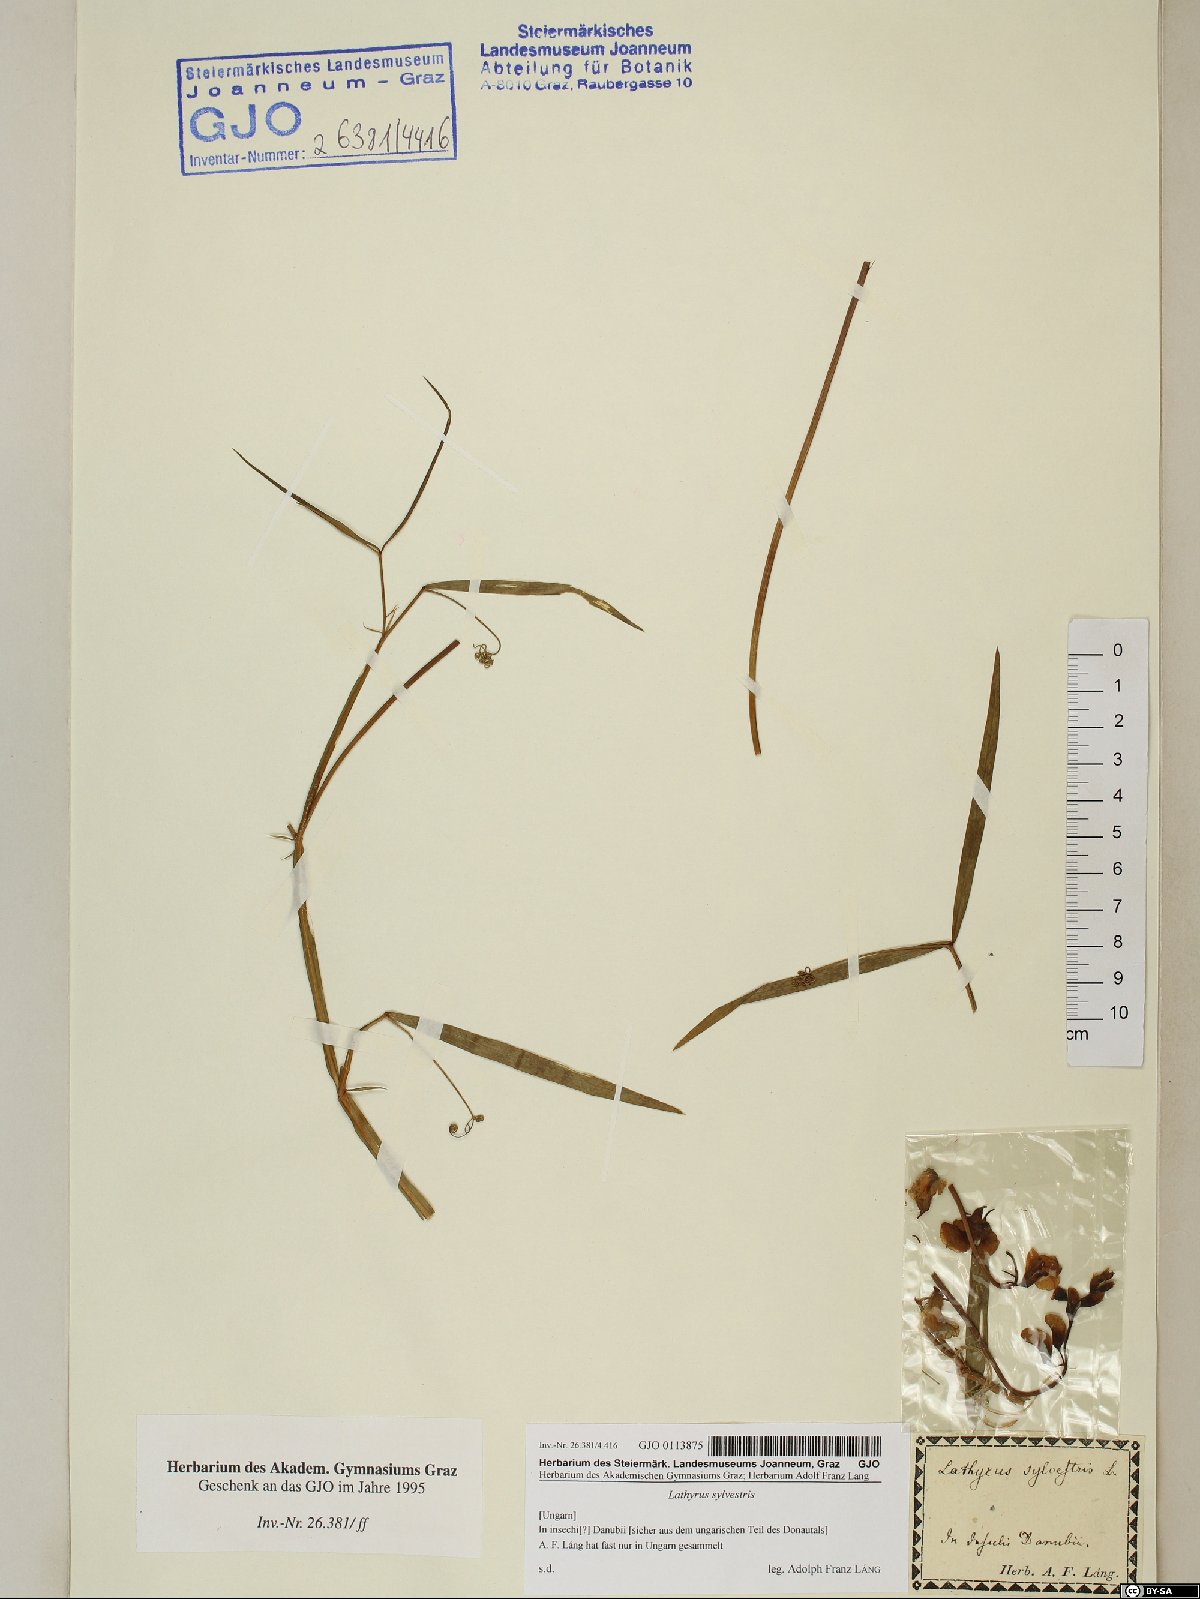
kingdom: Plantae
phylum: Tracheophyta
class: Magnoliopsida
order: Fabales
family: Fabaceae
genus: Lathyrus
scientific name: Lathyrus sylvestris
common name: Flat pea
